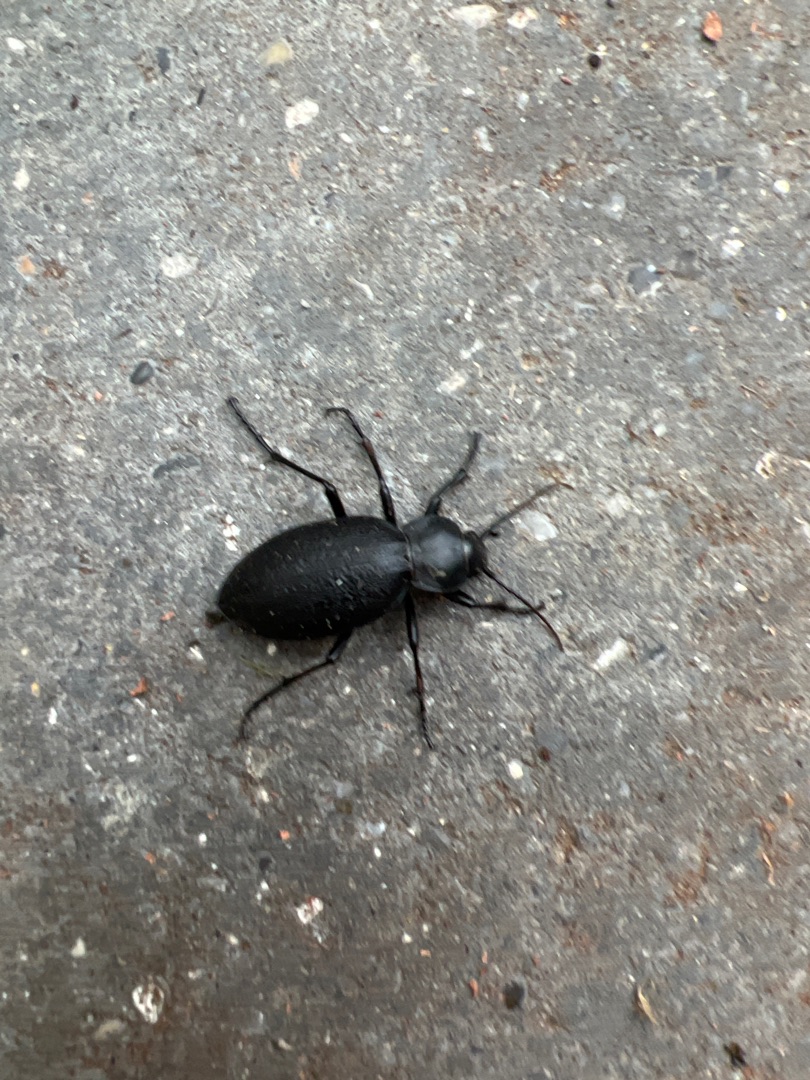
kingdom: Animalia
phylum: Arthropoda
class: Insecta
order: Coleoptera
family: Carabidae
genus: Carabus
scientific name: Carabus coriaceus
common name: Læderløber
